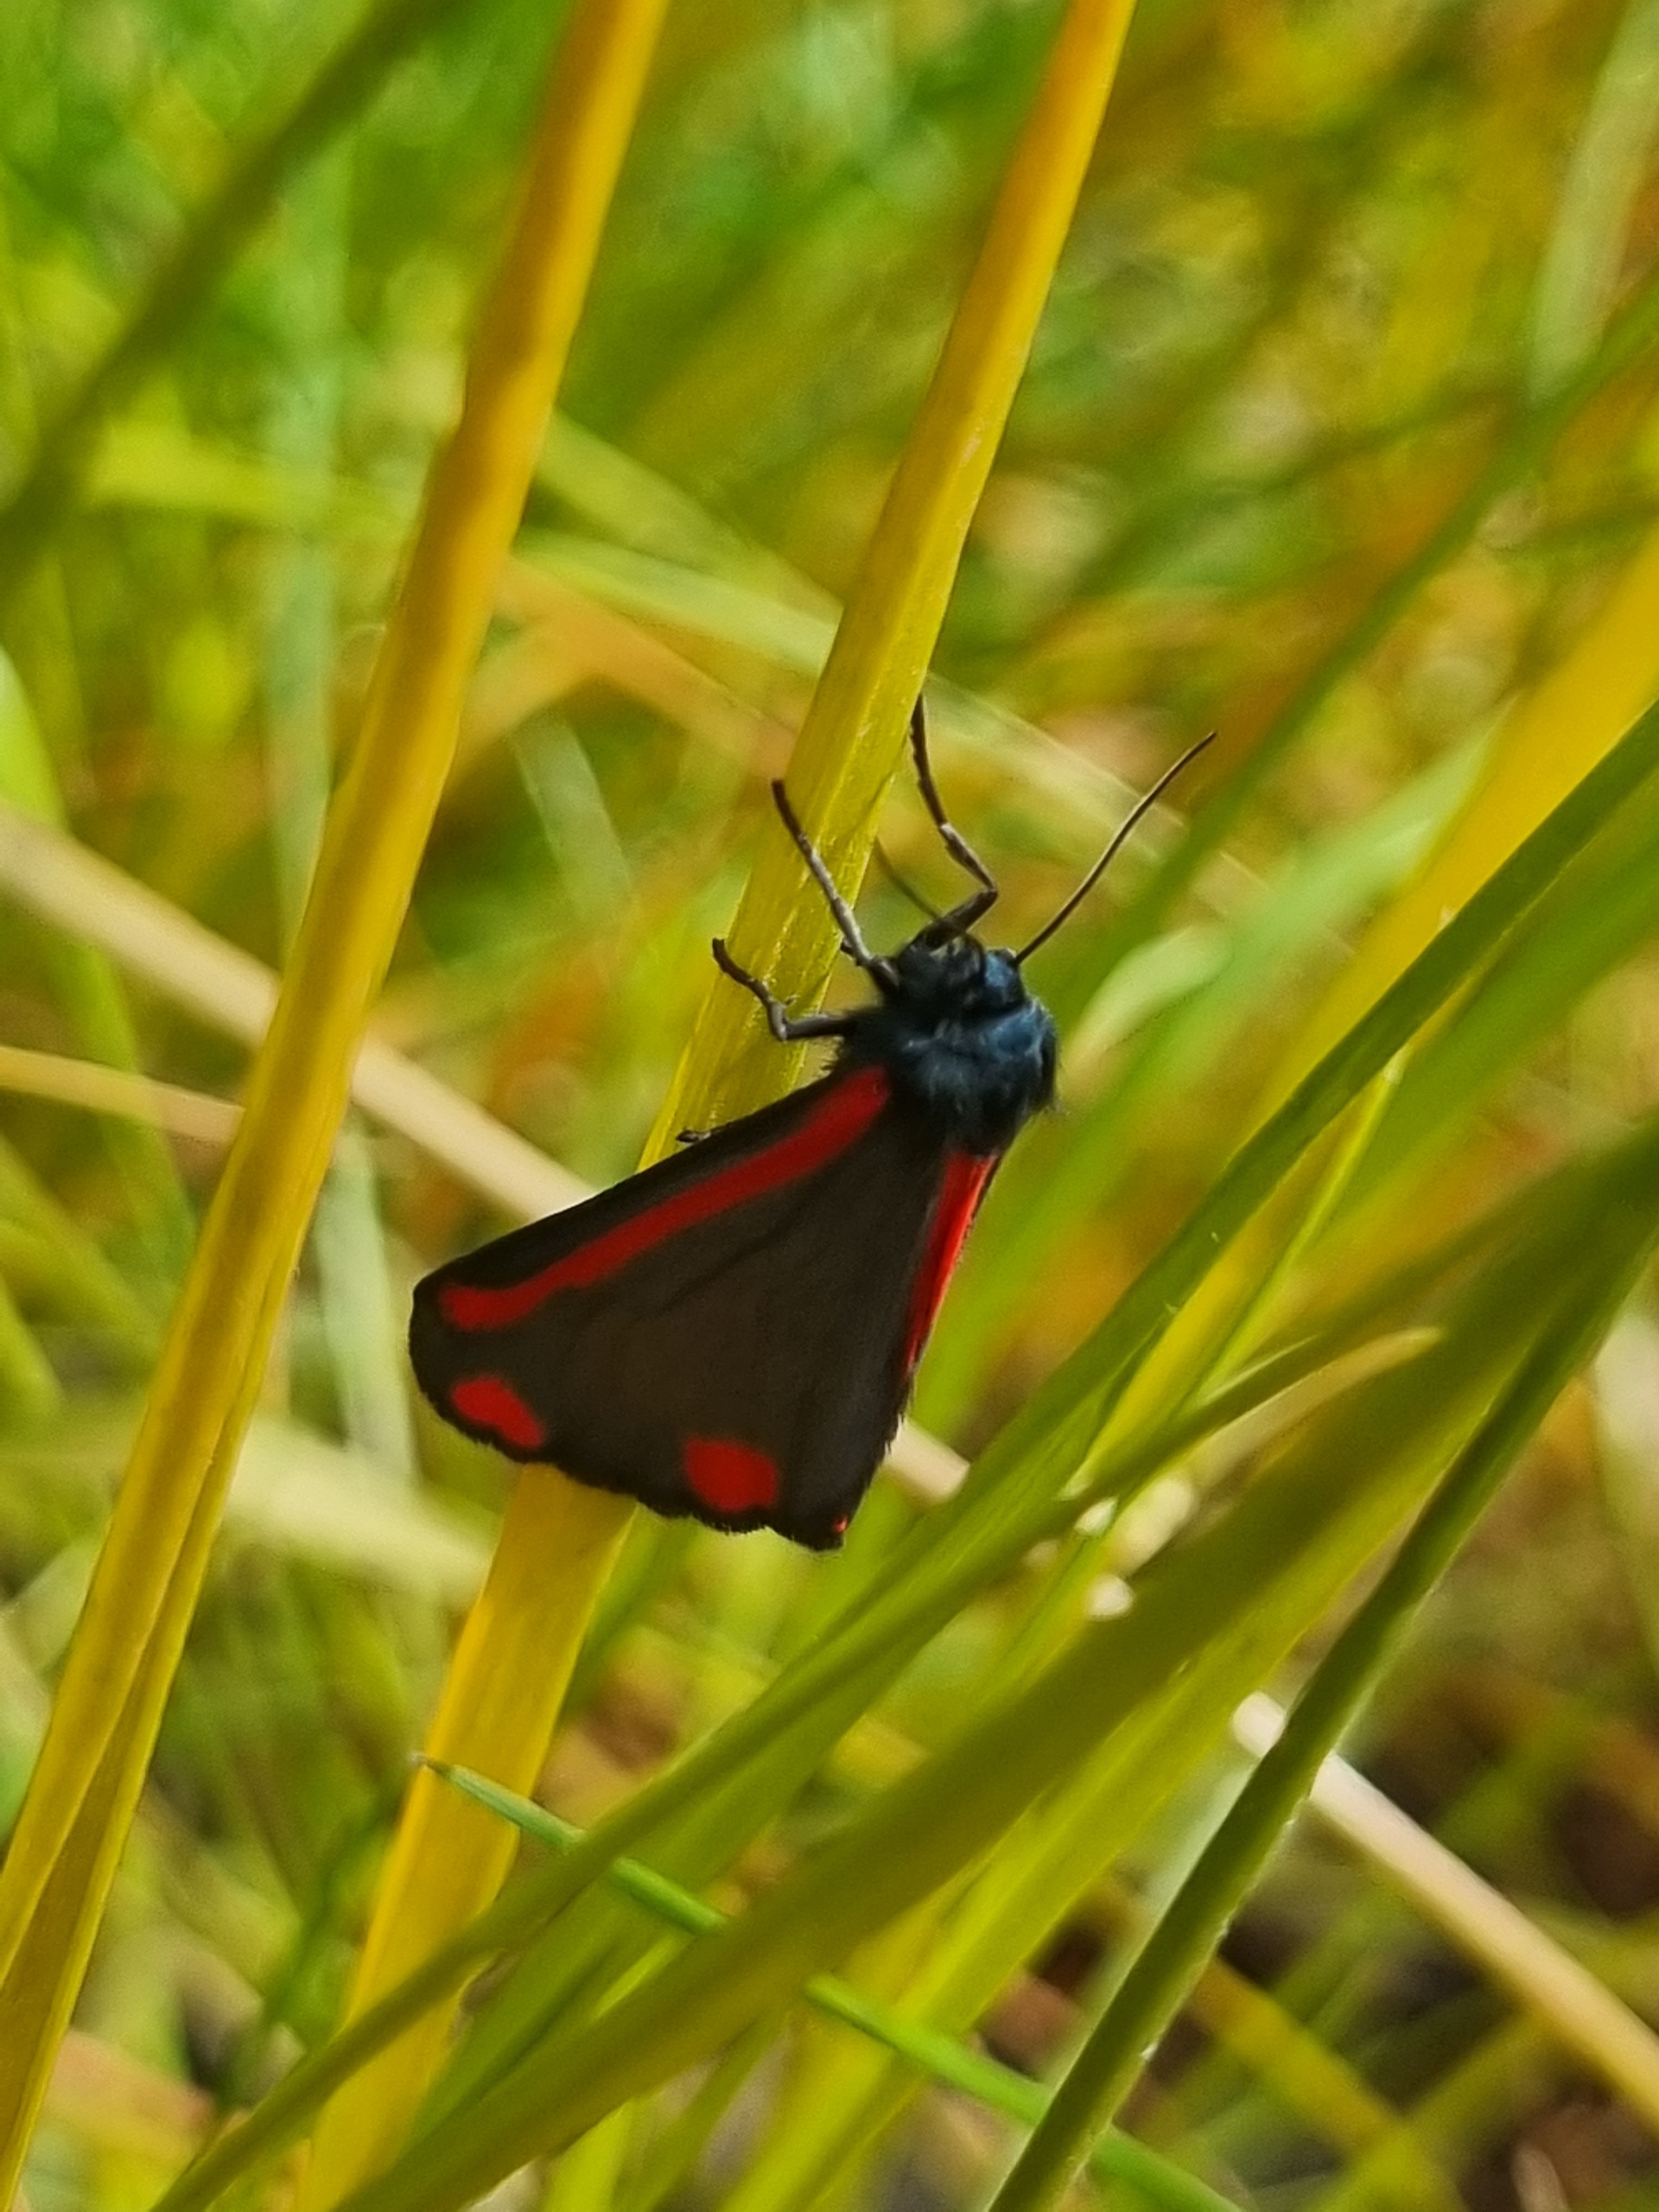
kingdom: Animalia
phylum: Arthropoda
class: Insecta
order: Lepidoptera
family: Erebidae
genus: Tyria
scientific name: Tyria jacobaeae
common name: Blodplet
